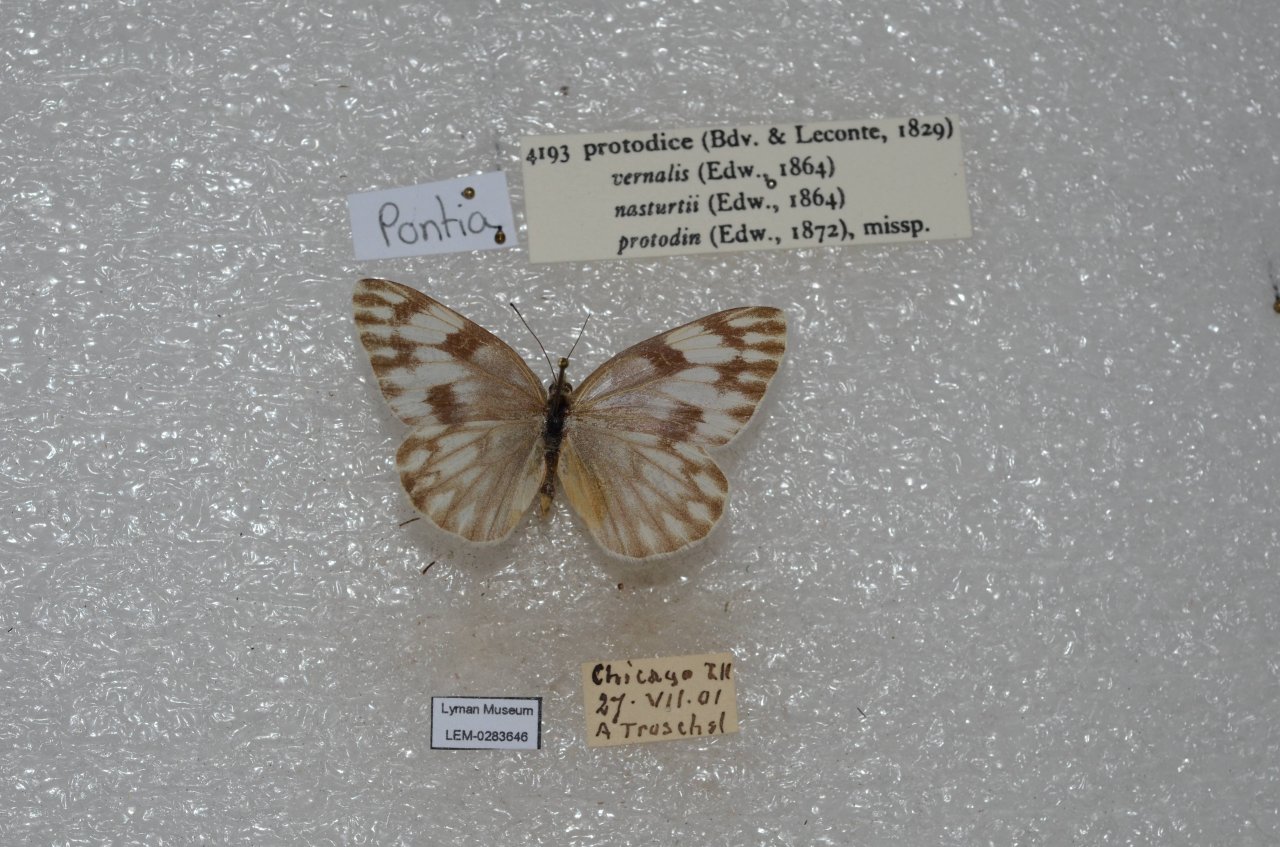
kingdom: Animalia
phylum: Arthropoda
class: Insecta
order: Lepidoptera
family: Pieridae
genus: Pontia
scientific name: Pontia protodice
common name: Checkered White
